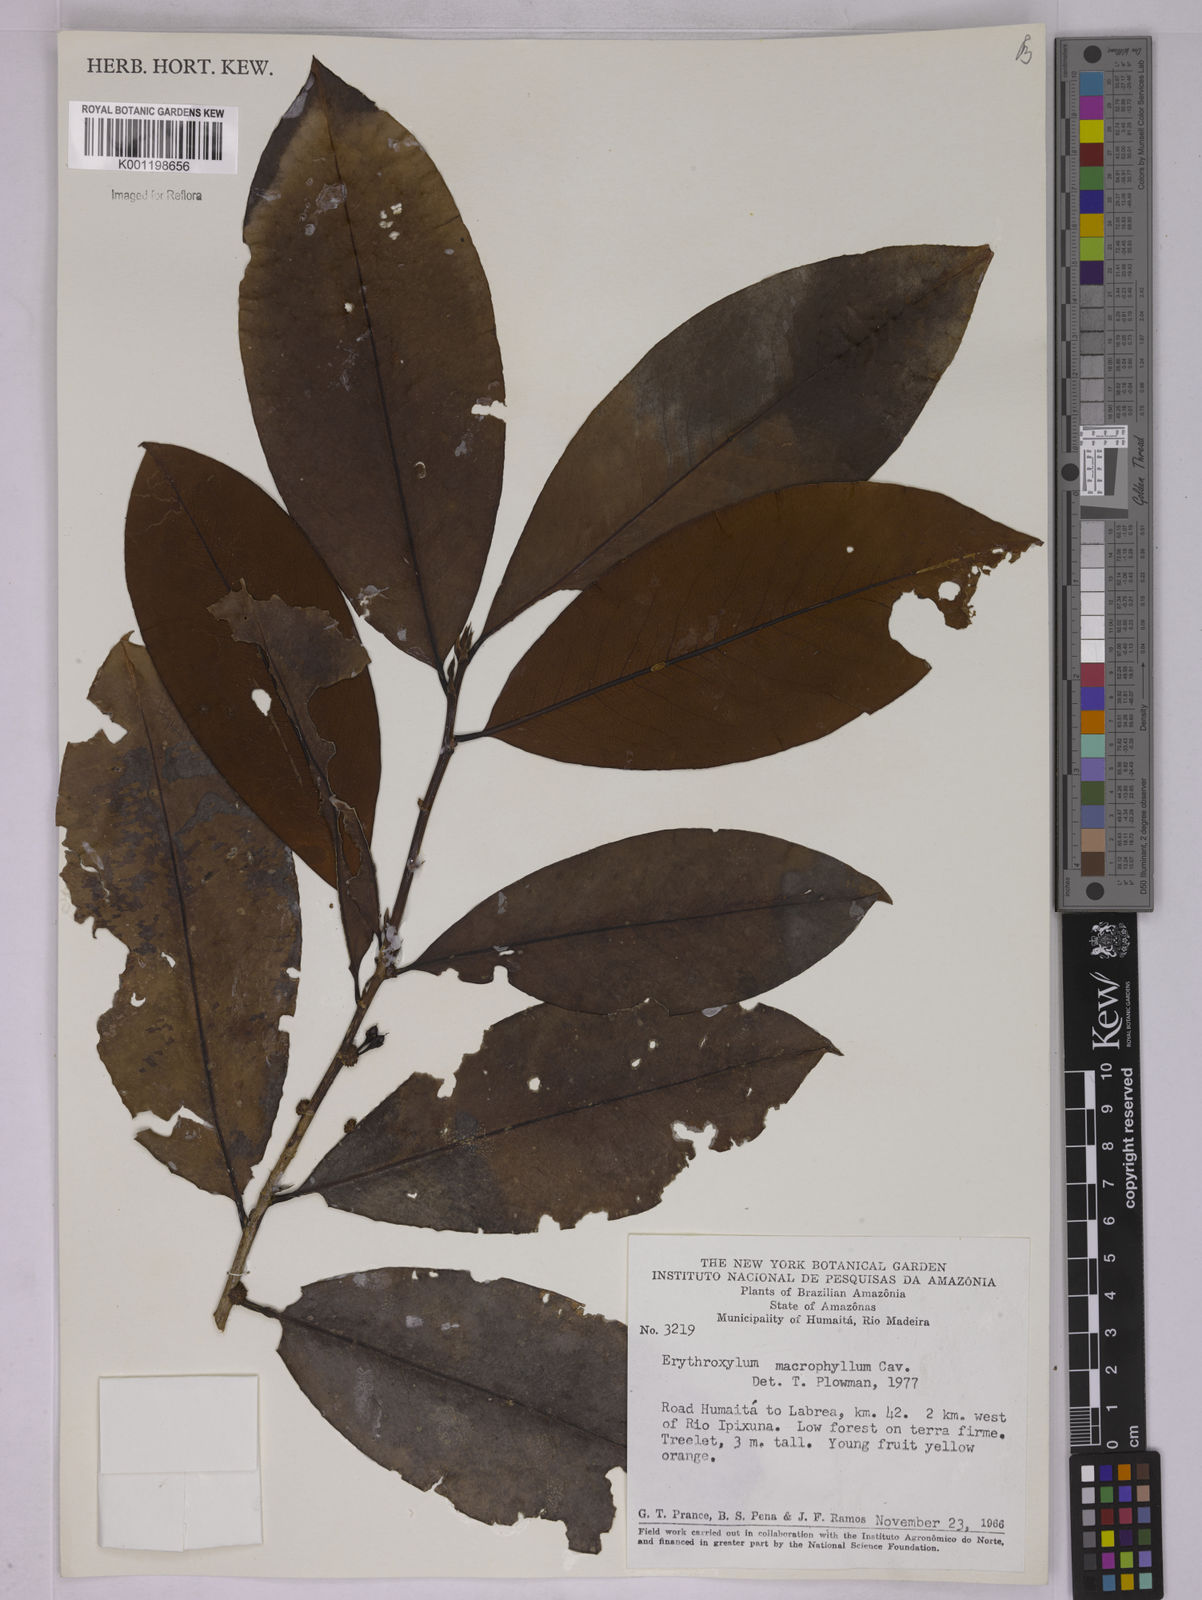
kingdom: Plantae
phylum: Tracheophyta
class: Magnoliopsida
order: Malpighiales
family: Erythroxylaceae
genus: Erythroxylum
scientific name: Erythroxylum macrophyllum
